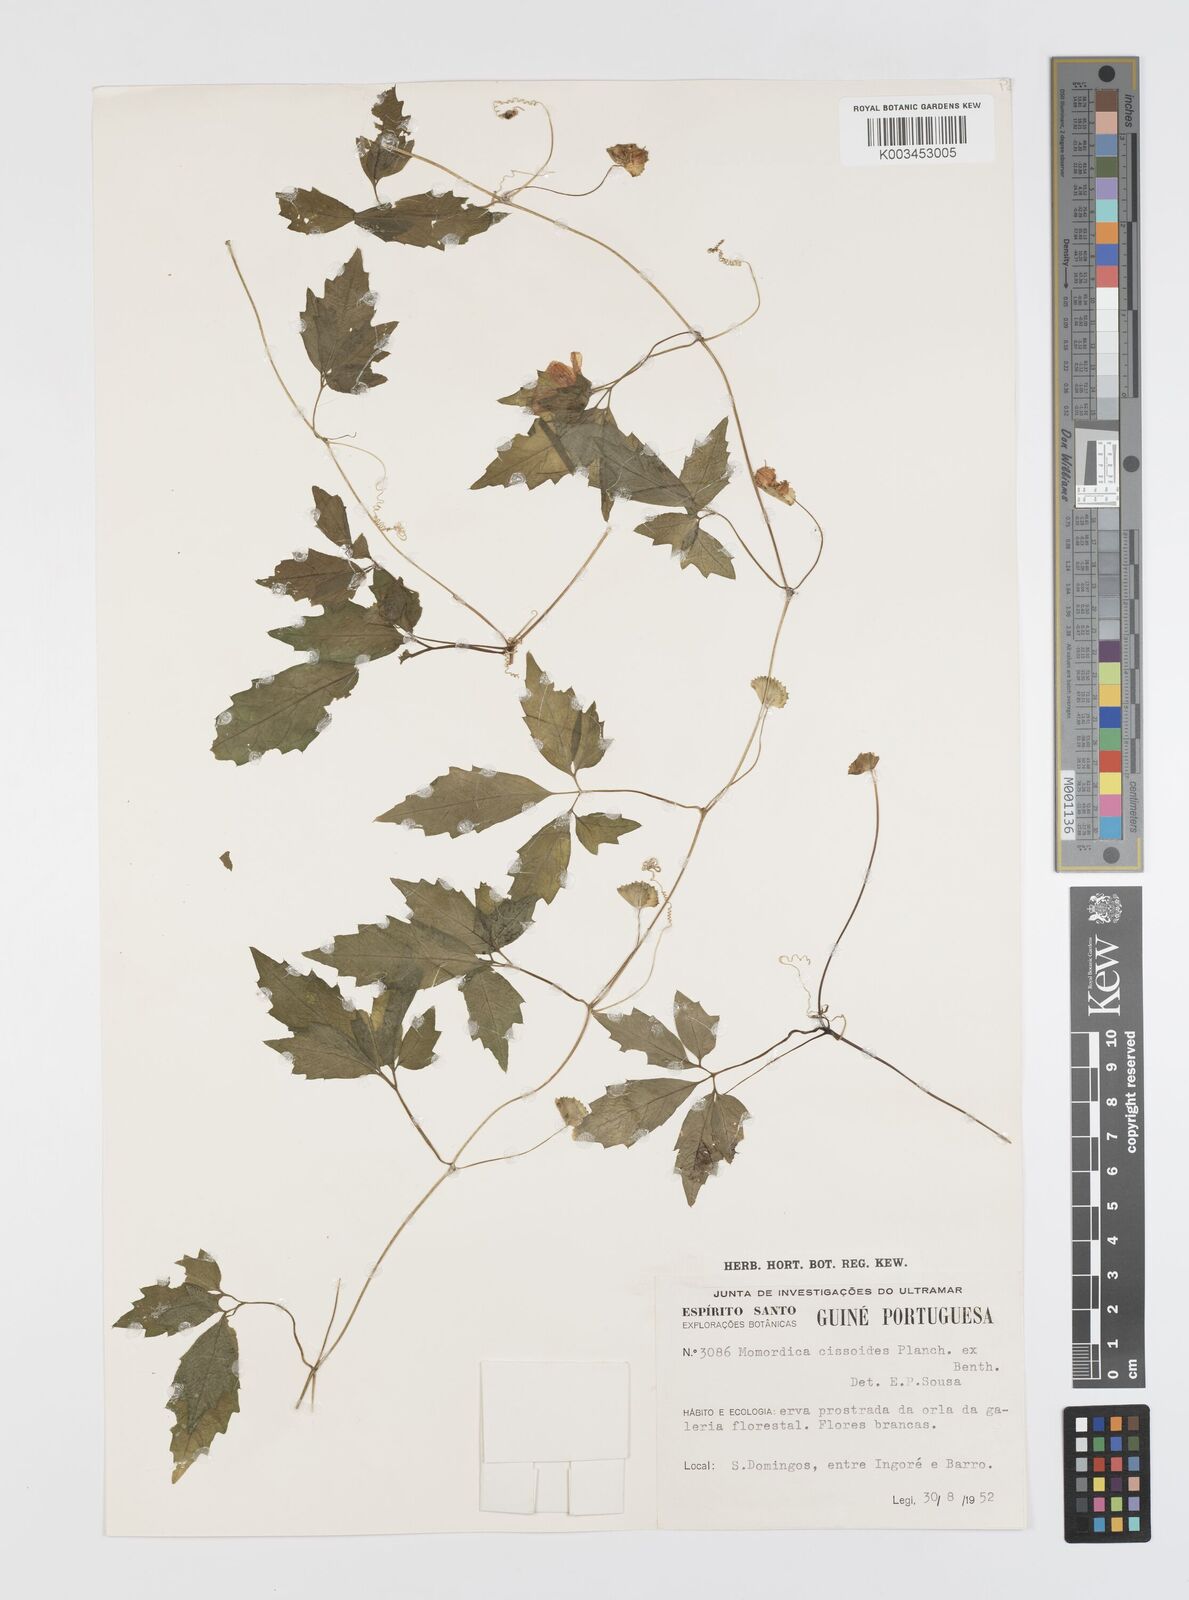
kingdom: Plantae
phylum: Tracheophyta
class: Magnoliopsida
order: Cucurbitales
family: Cucurbitaceae
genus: Momordica
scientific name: Momordica cissoides
